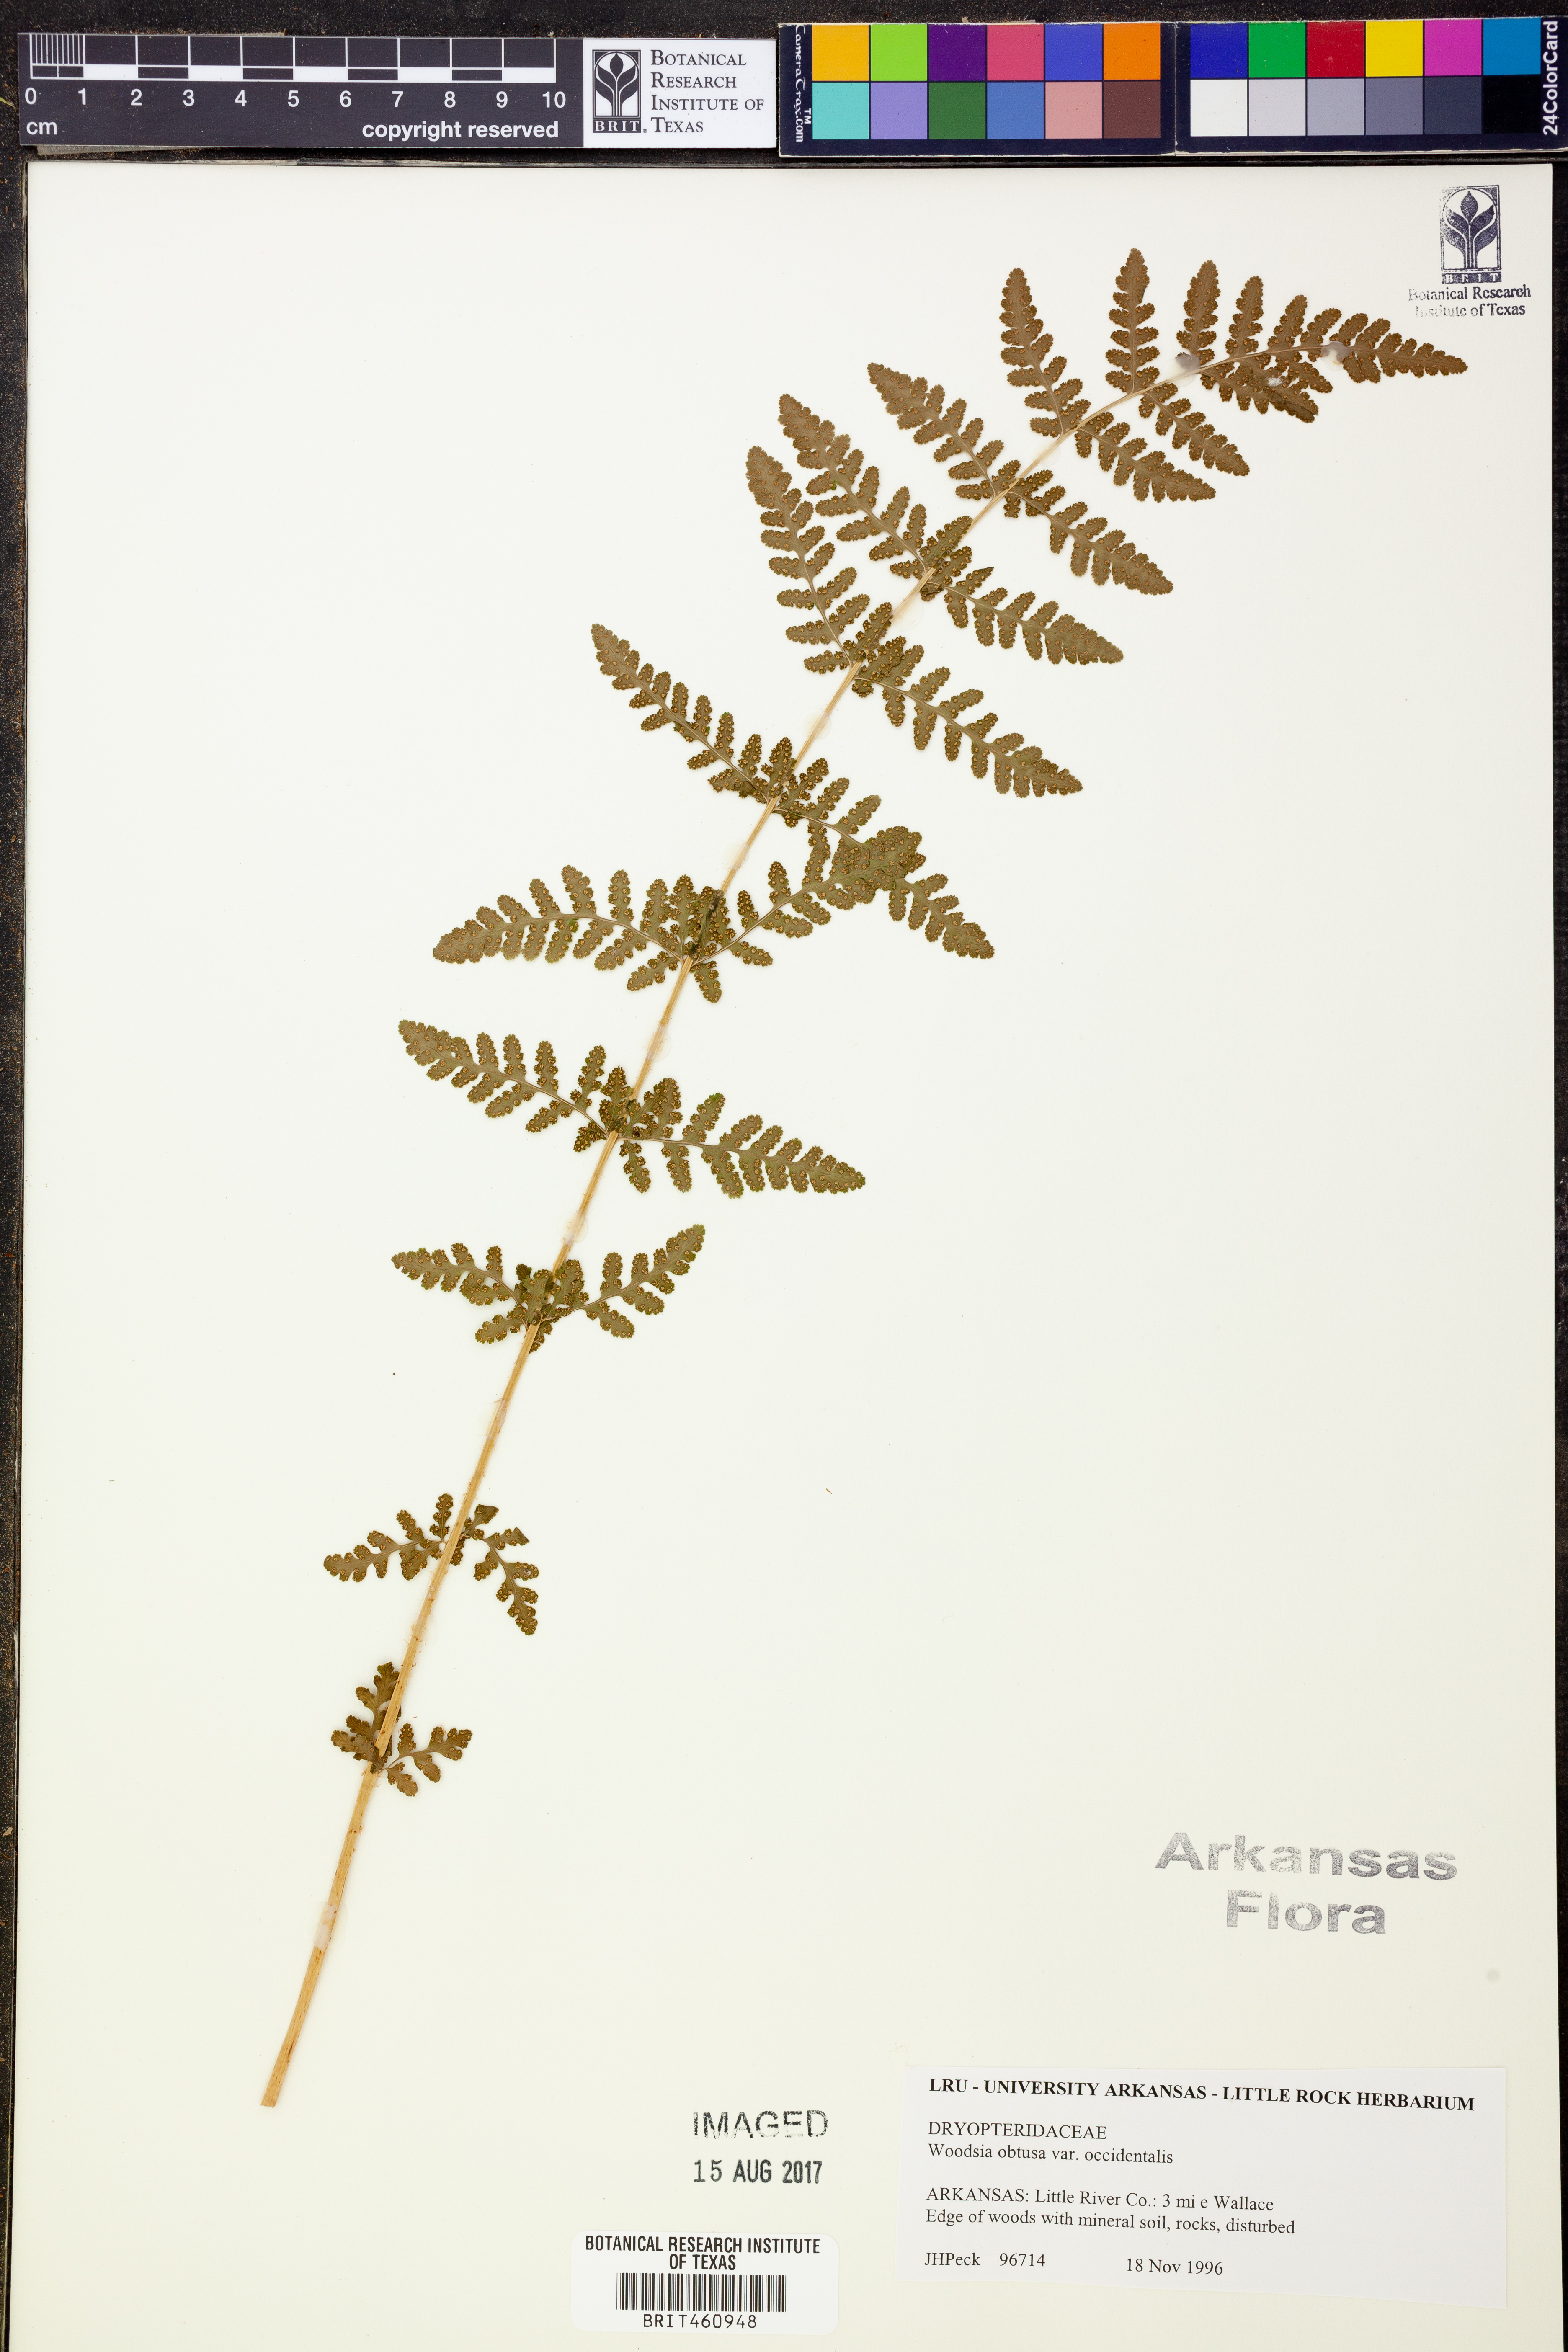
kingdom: Plantae
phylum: Tracheophyta
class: Polypodiopsida
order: Polypodiales
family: Woodsiaceae
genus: Physematium
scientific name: Physematium obtusum
